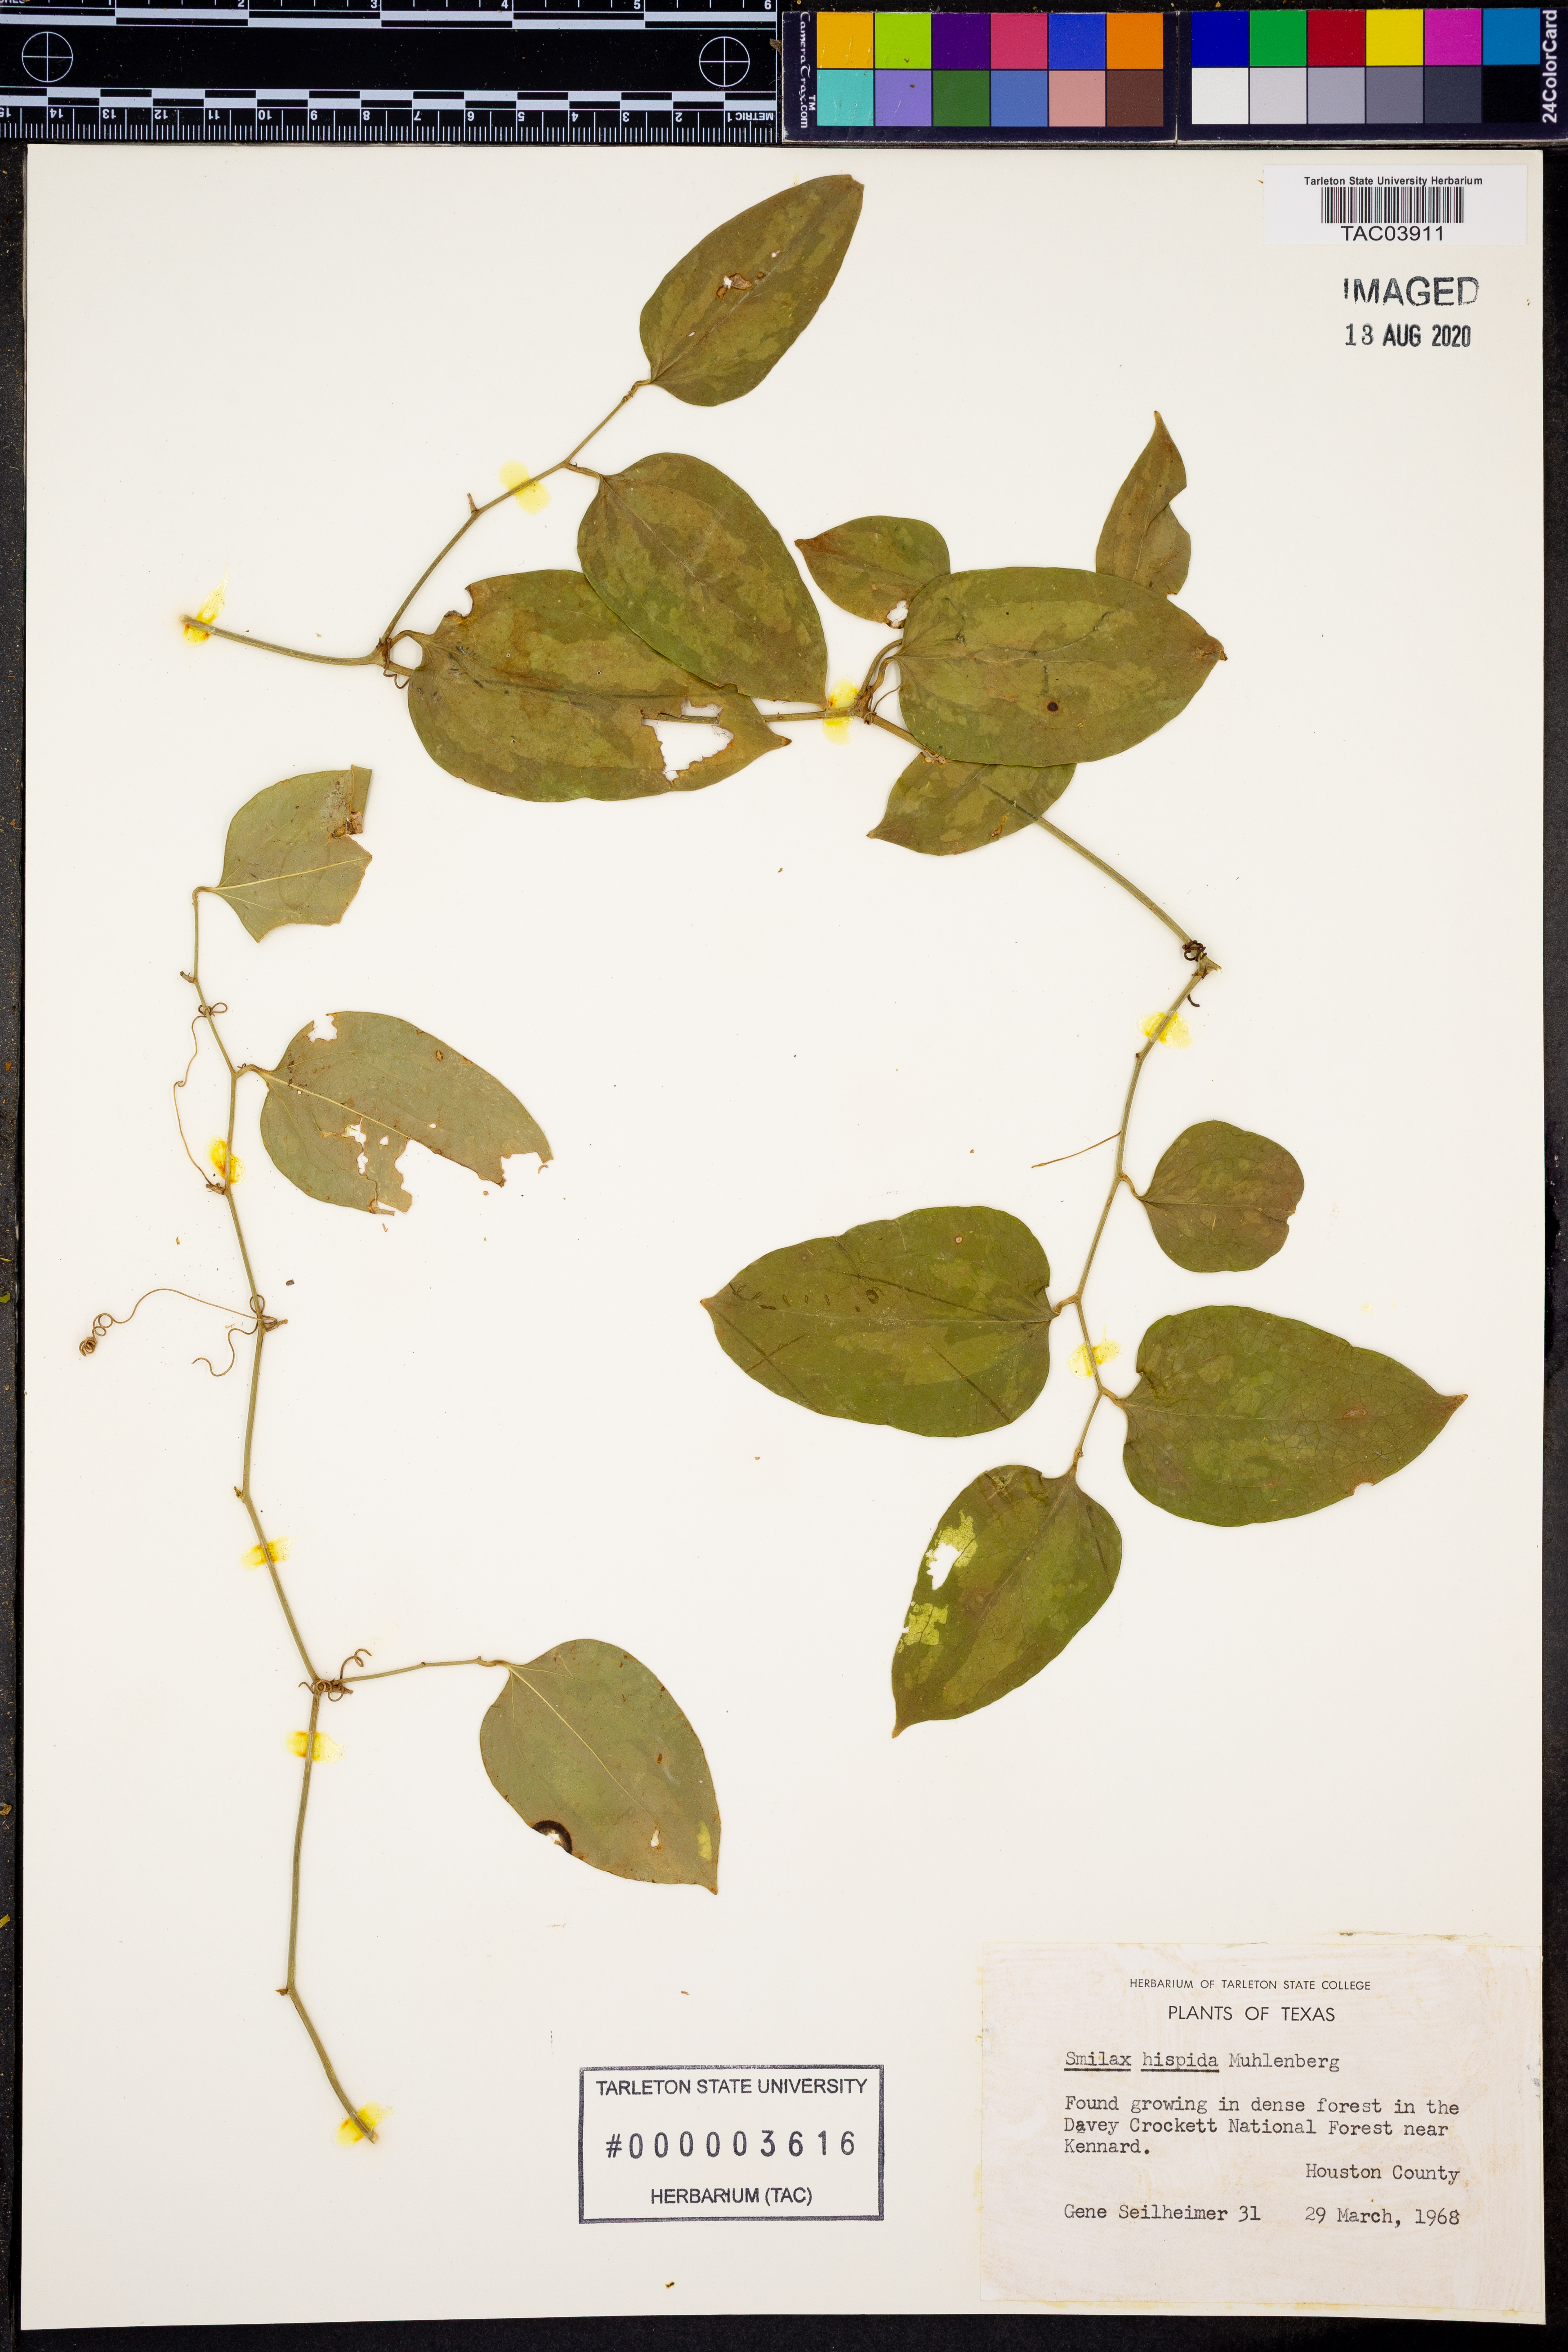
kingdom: Plantae
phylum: Tracheophyta
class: Liliopsida
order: Liliales
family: Smilacaceae
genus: Smilax
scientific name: Smilax tamnoides
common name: Hellfetter
